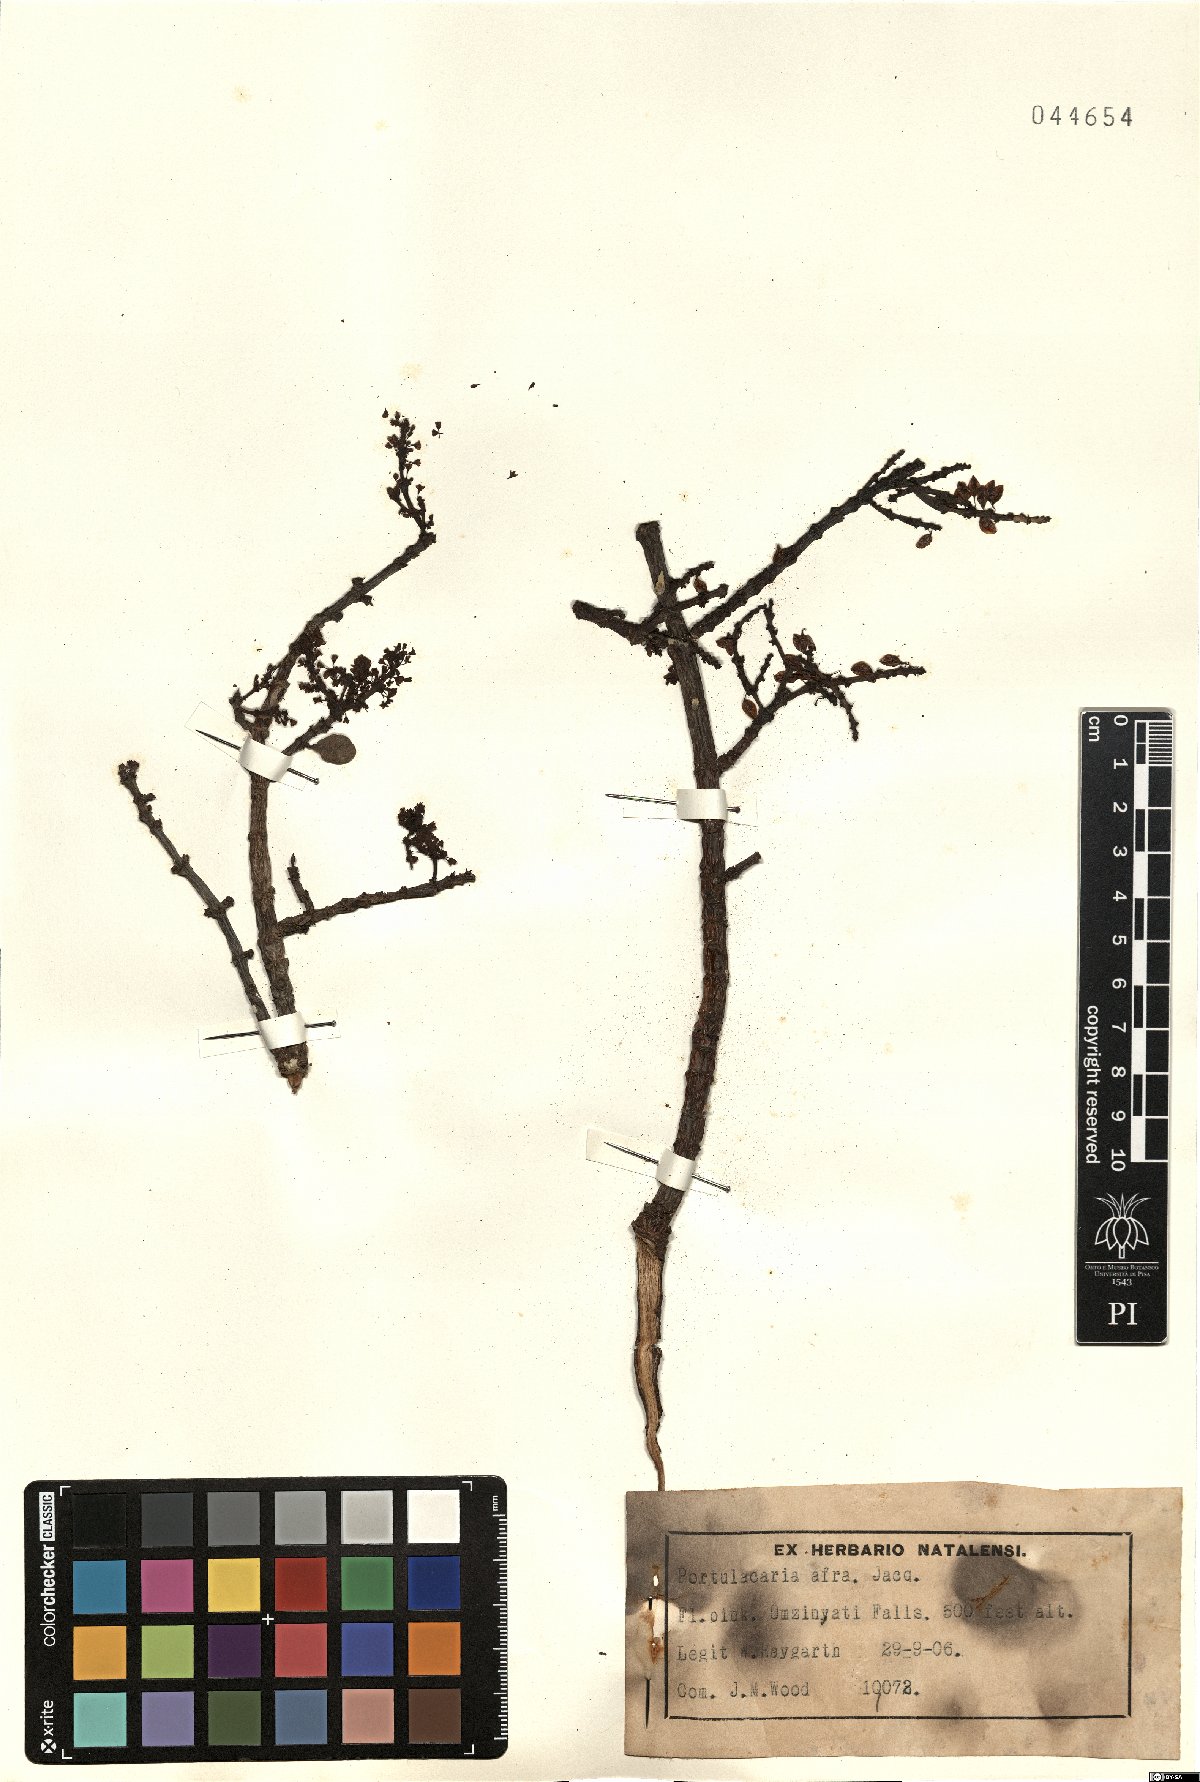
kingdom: Plantae
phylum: Tracheophyta
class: Magnoliopsida
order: Caryophyllales
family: Didiereaceae
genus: Portulacaria
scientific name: Portulacaria afra
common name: Elephant-bush
